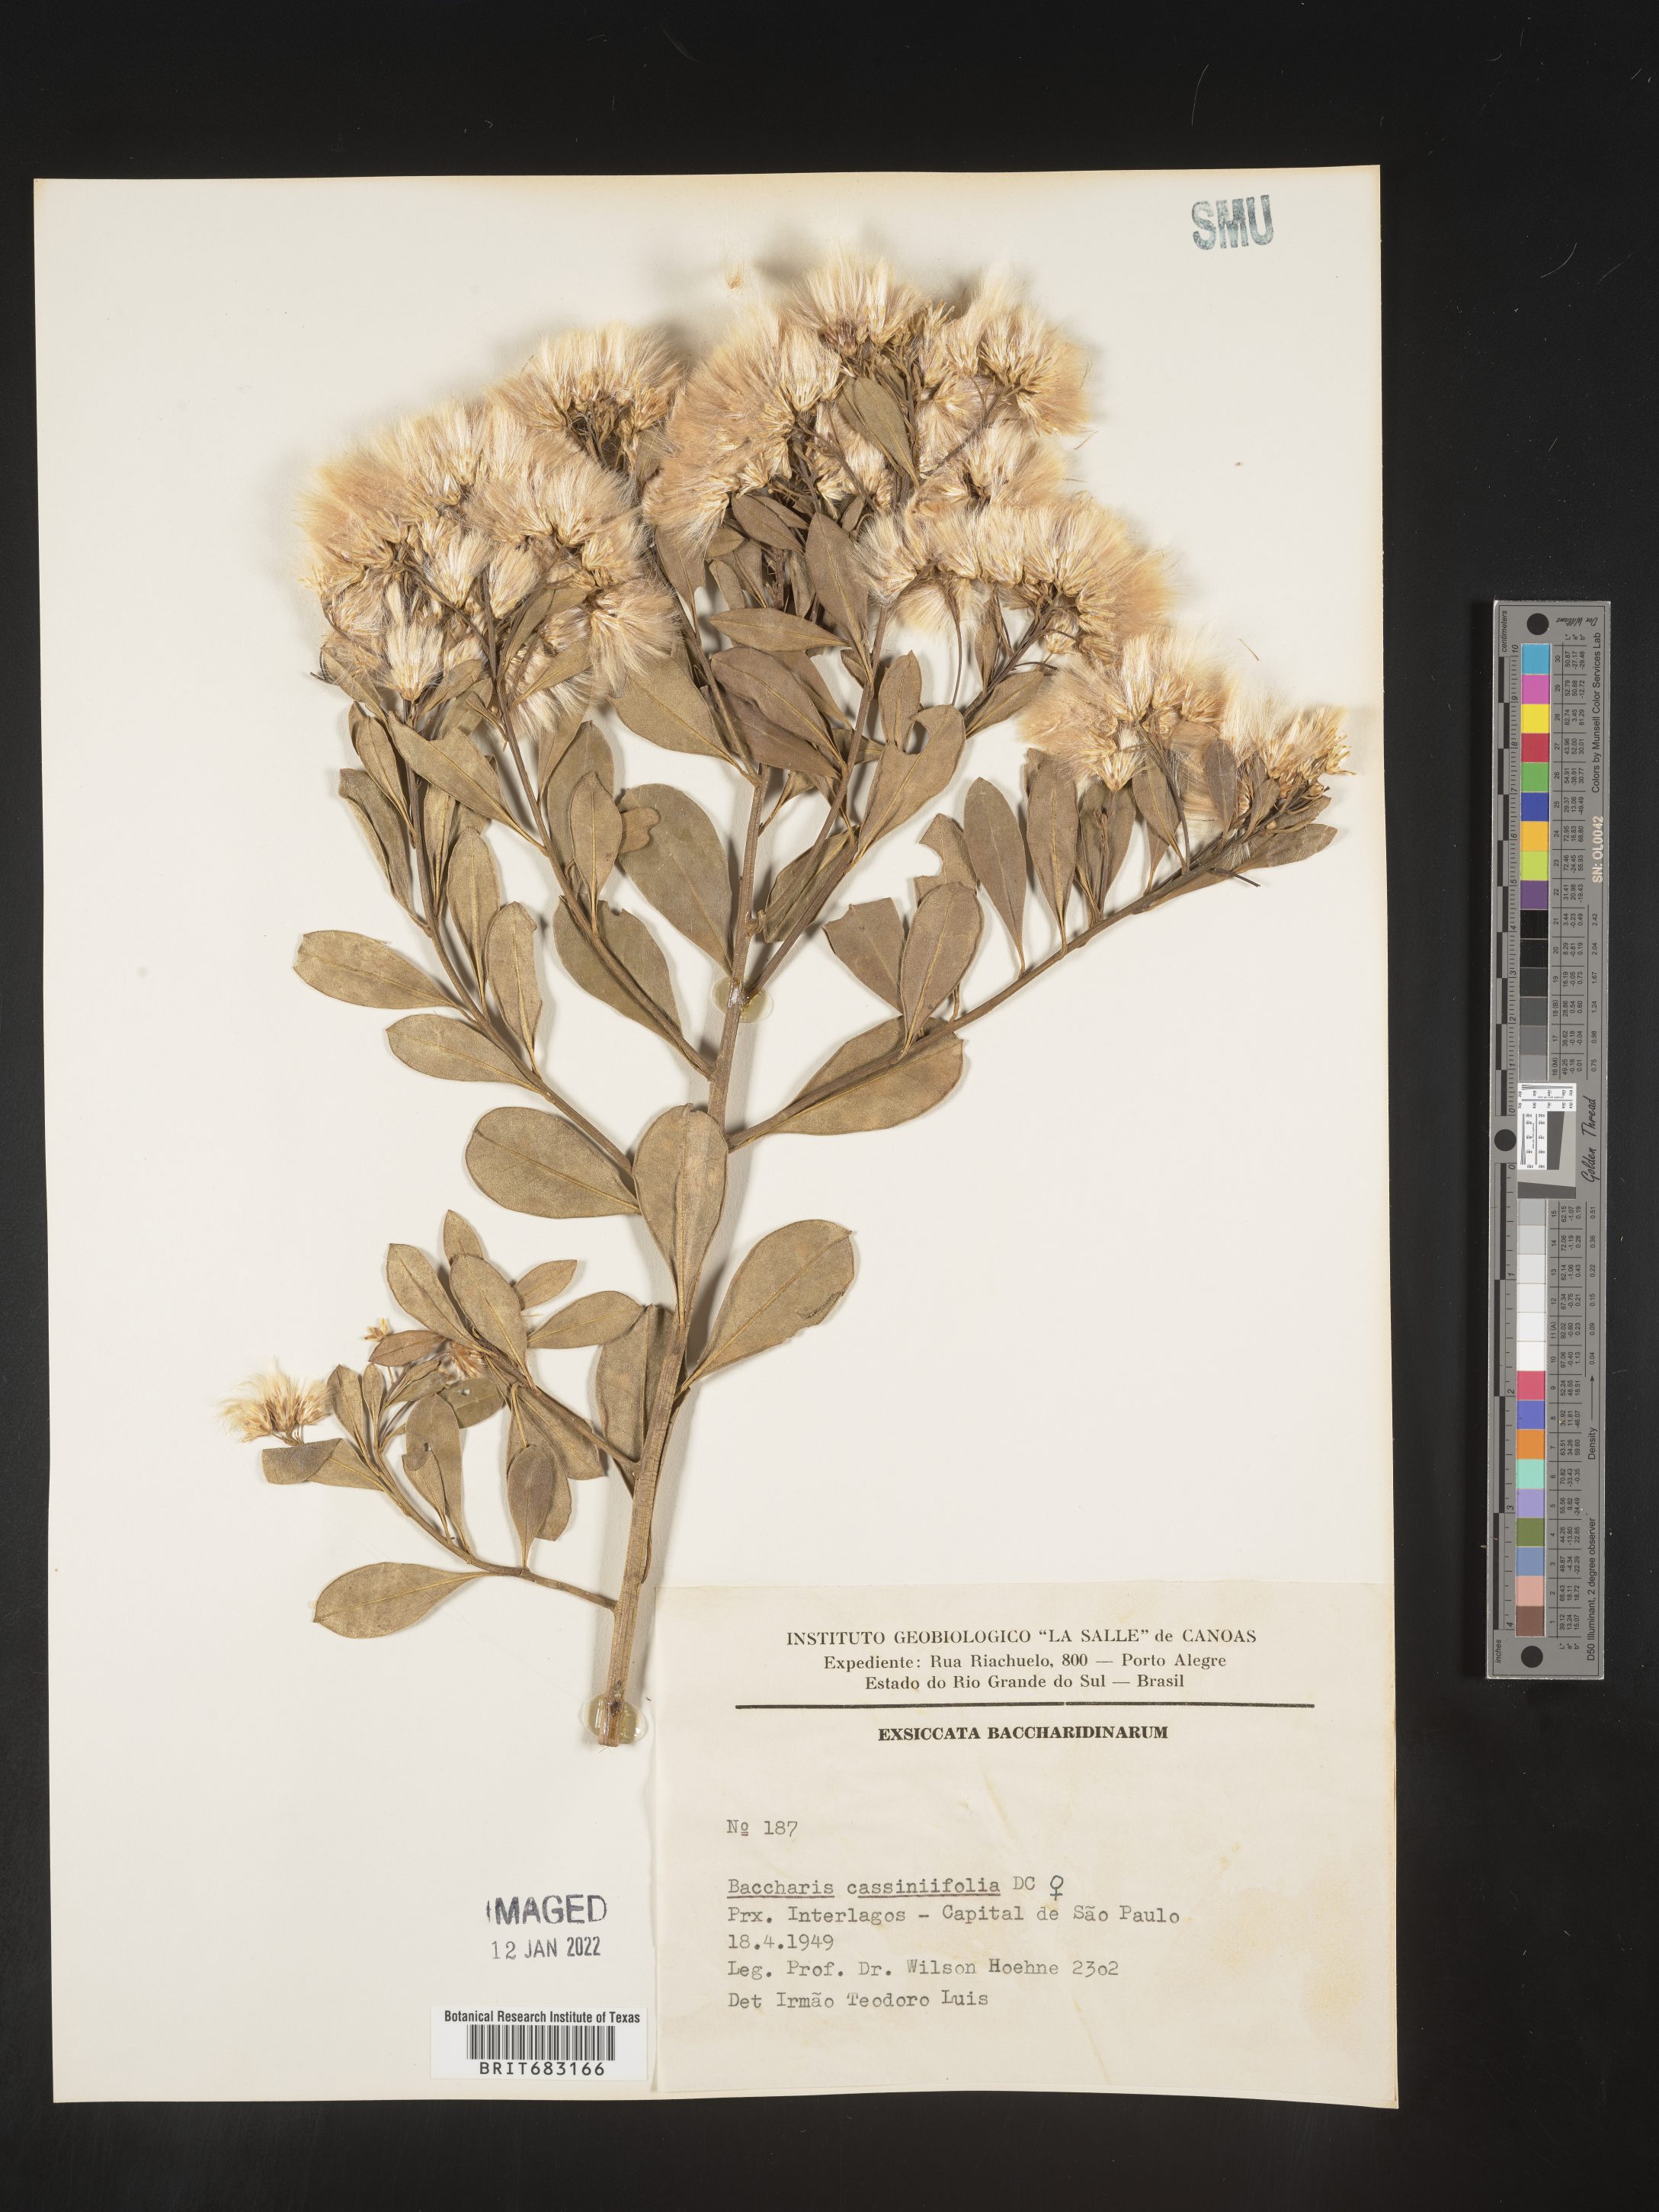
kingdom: Plantae
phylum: Tracheophyta
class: Magnoliopsida
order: Asterales
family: Asteraceae
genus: Baccharis
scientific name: Baccharis
